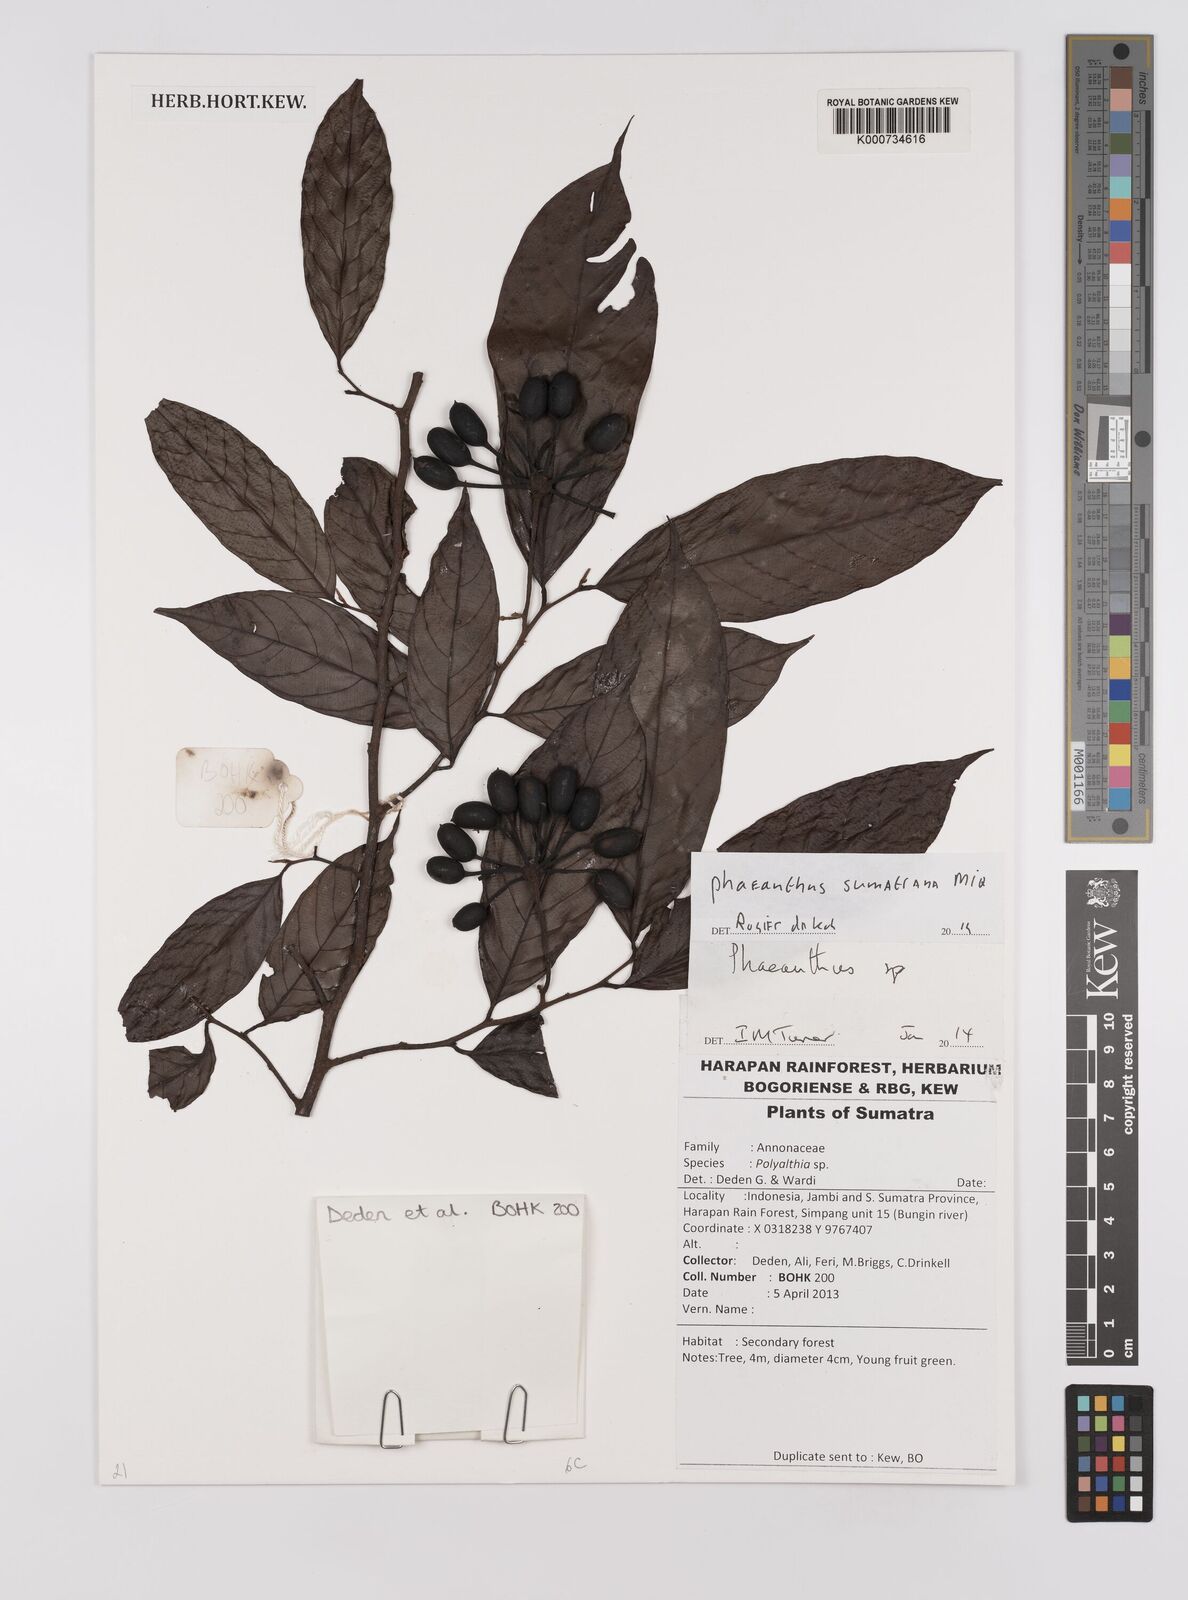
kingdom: Plantae
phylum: Tracheophyta
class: Magnoliopsida
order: Magnoliales
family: Annonaceae
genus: Phaeanthus
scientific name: Phaeanthus sumatrana
